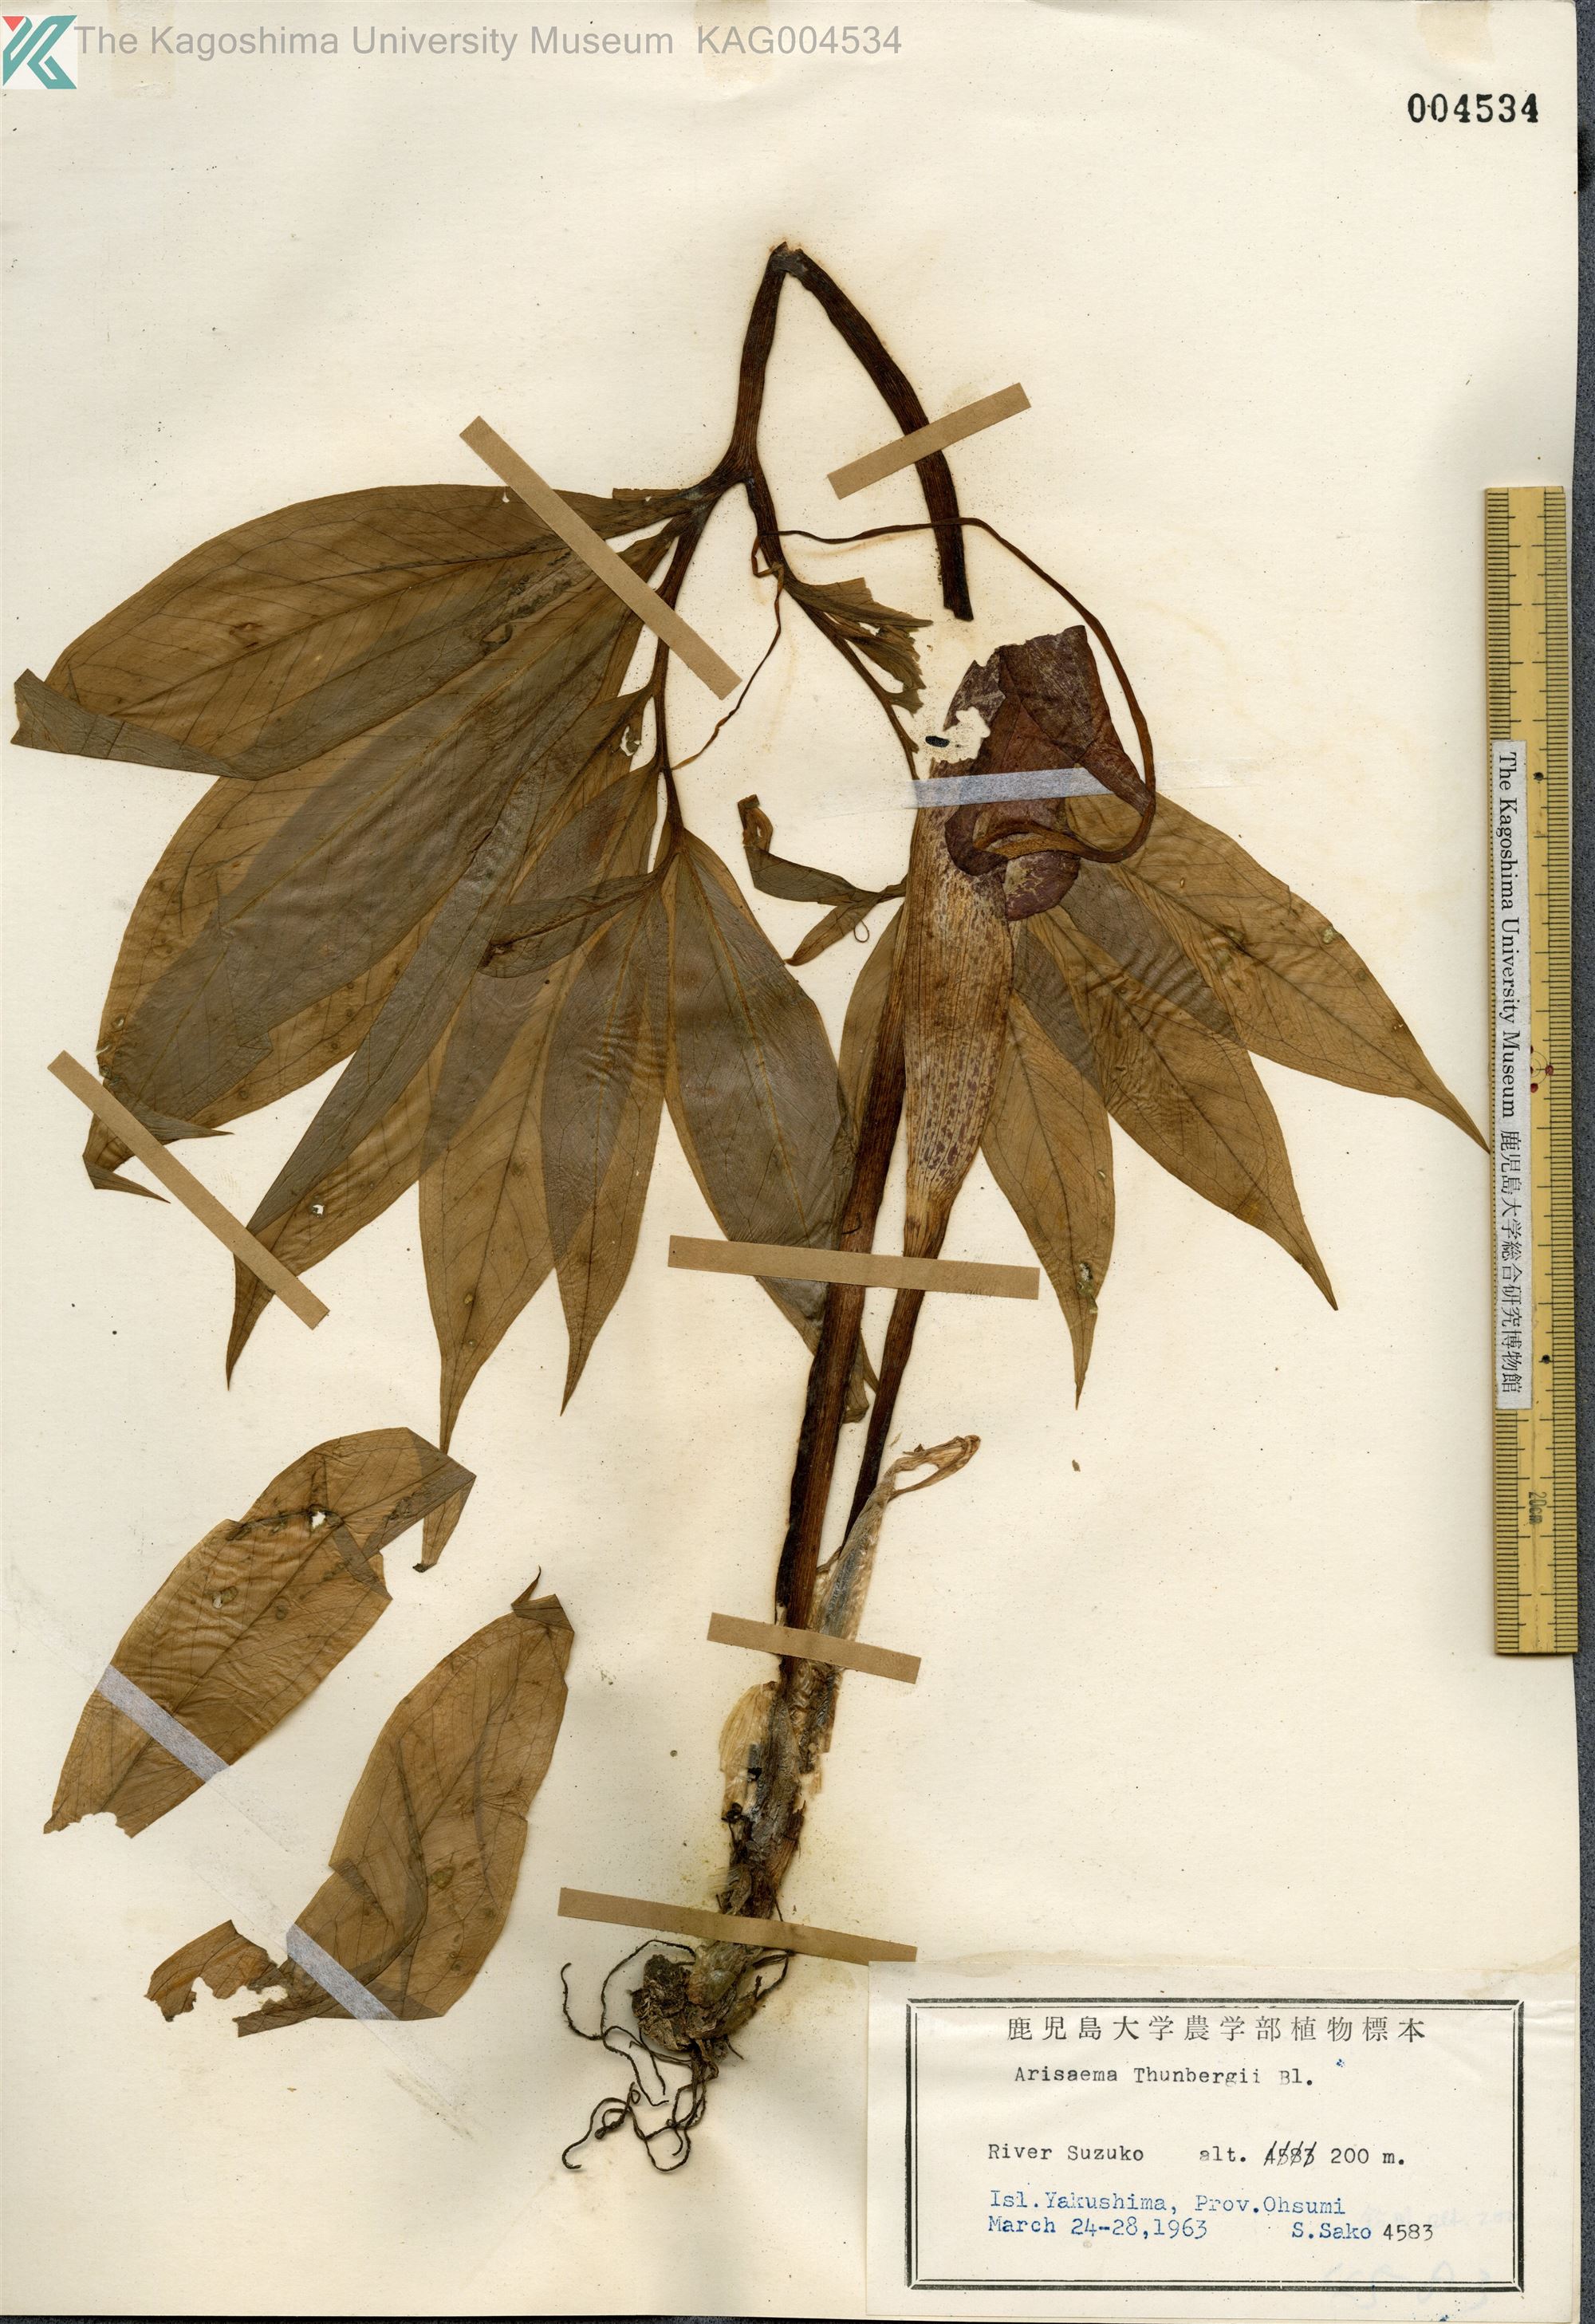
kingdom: Plantae
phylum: Tracheophyta
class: Liliopsida
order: Alismatales
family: Araceae
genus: Arisaema
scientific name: Arisaema thunbergii
